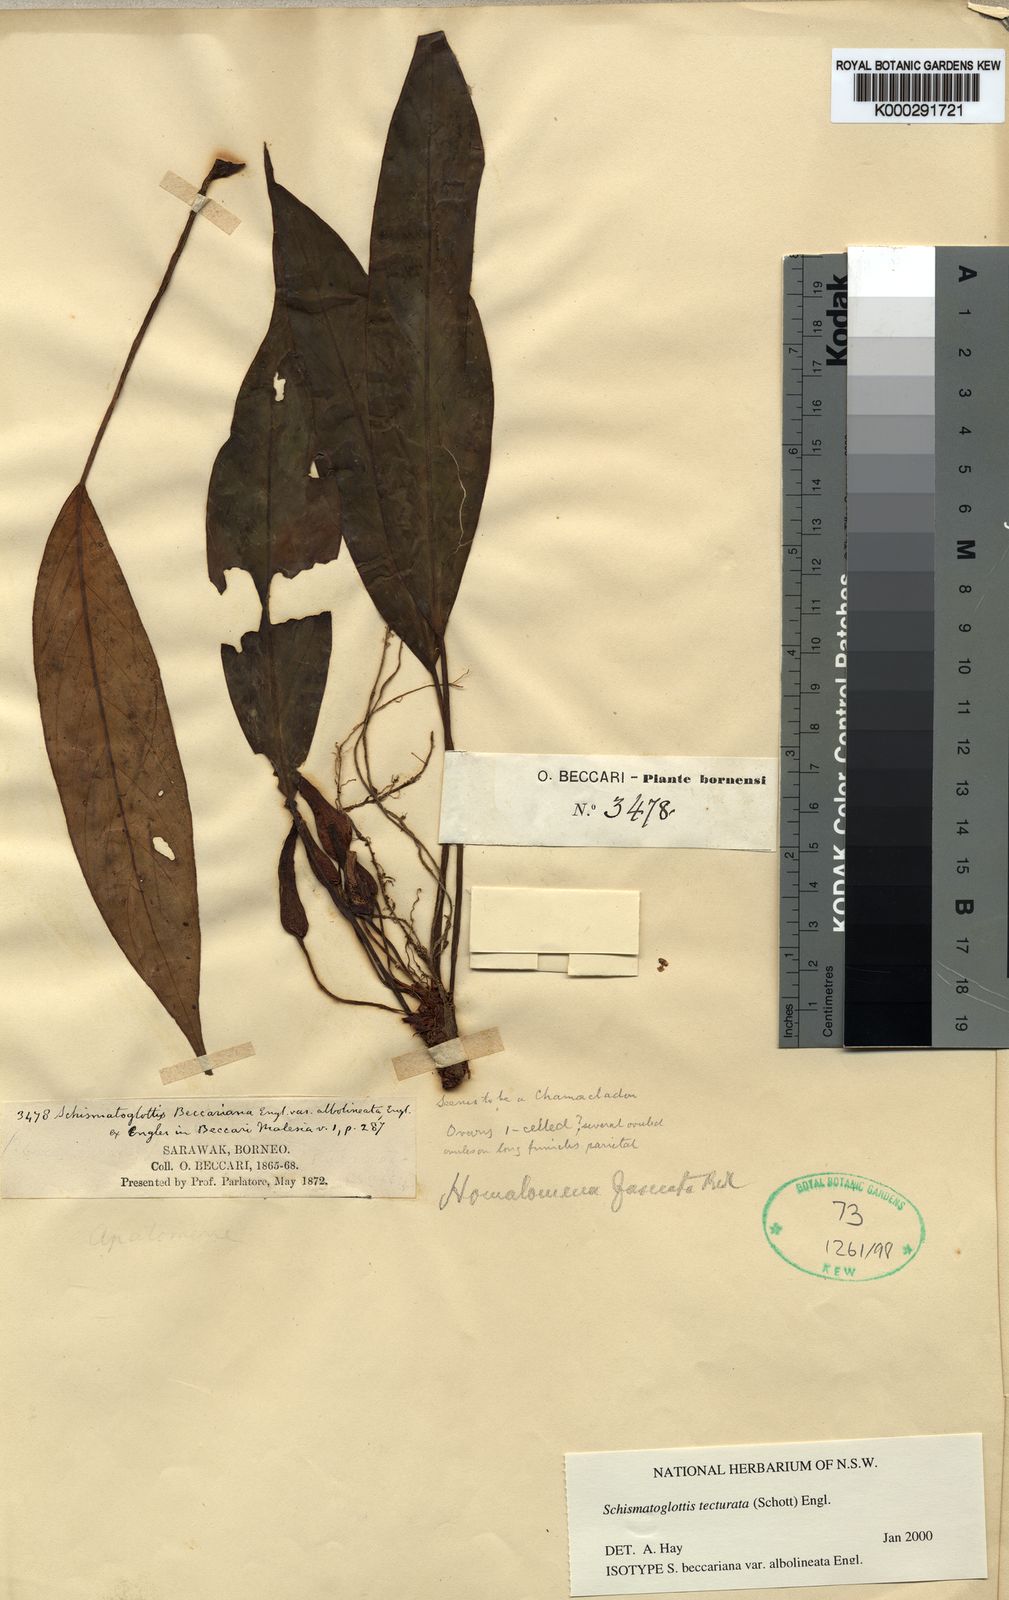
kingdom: Plantae
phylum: Tracheophyta
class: Liliopsida
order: Zingiberales
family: Costaceae
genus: Colobogynium
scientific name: Colobogynium variegatum
